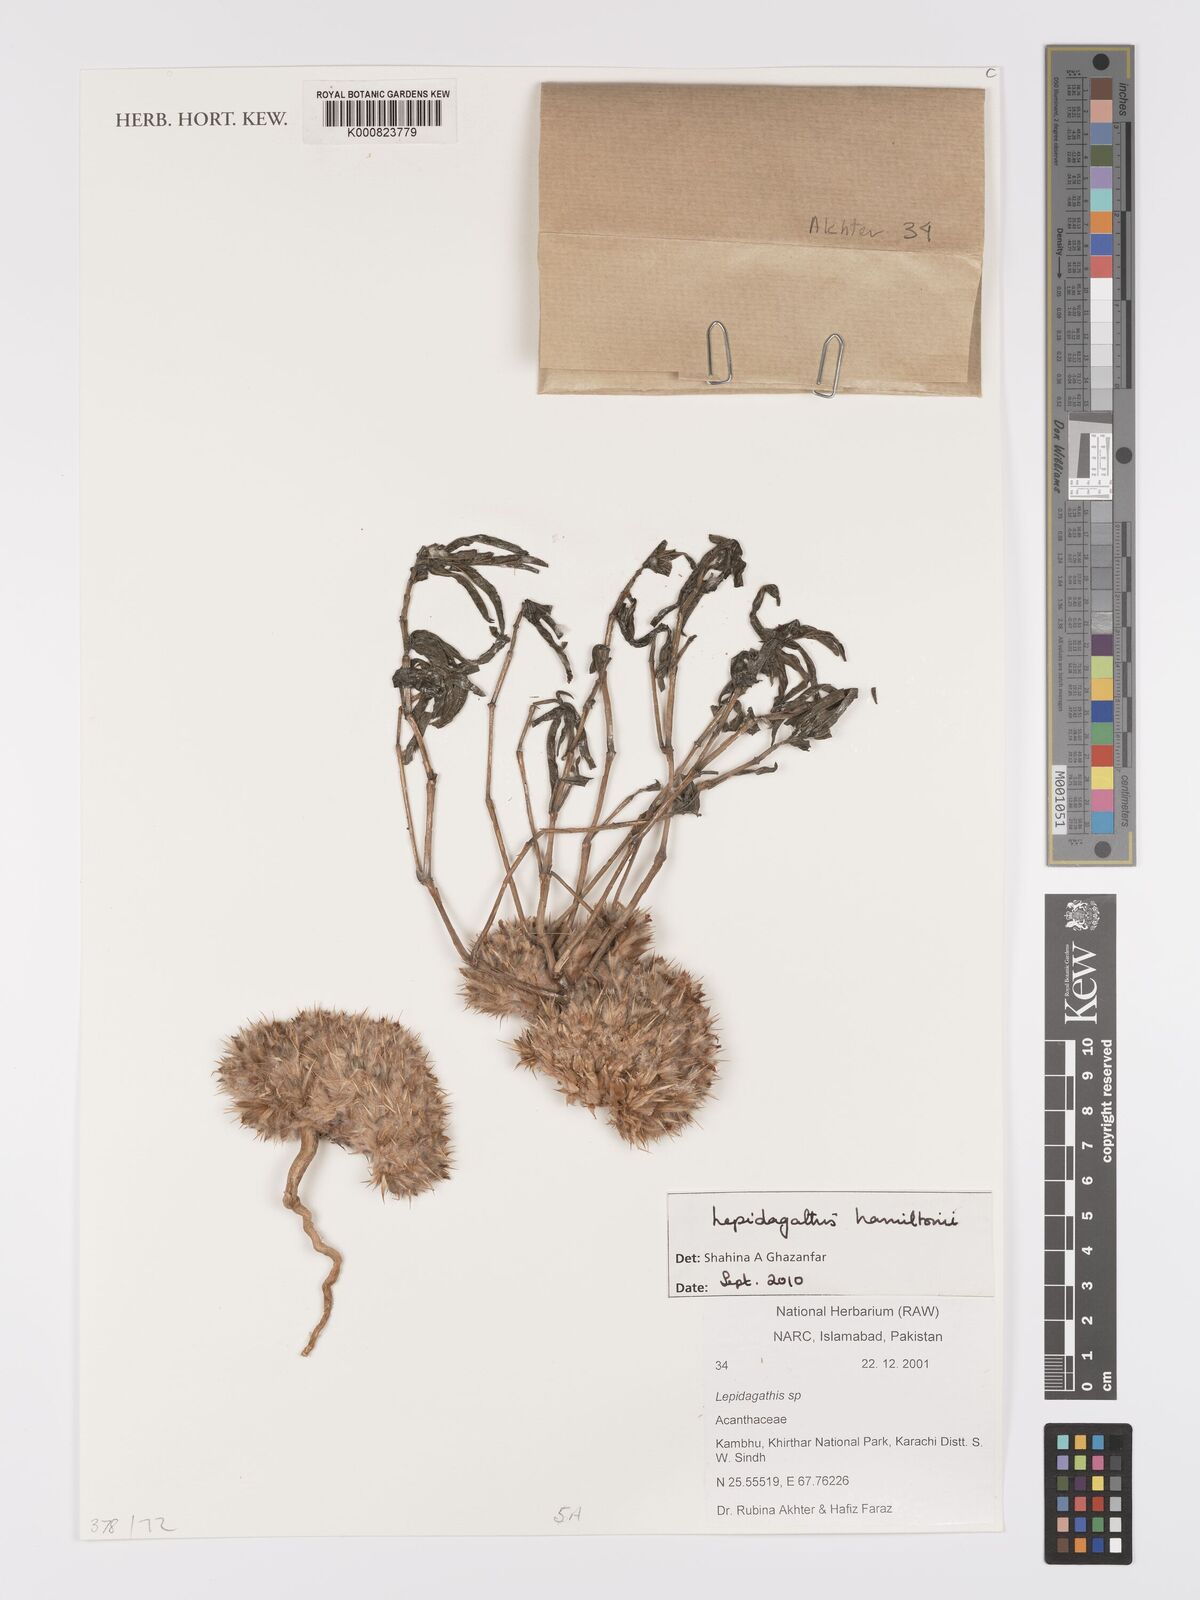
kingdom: Plantae
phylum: Tracheophyta
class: Magnoliopsida
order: Lamiales
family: Acanthaceae
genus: Lepidagathis
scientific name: Lepidagathis hamiltoniana
